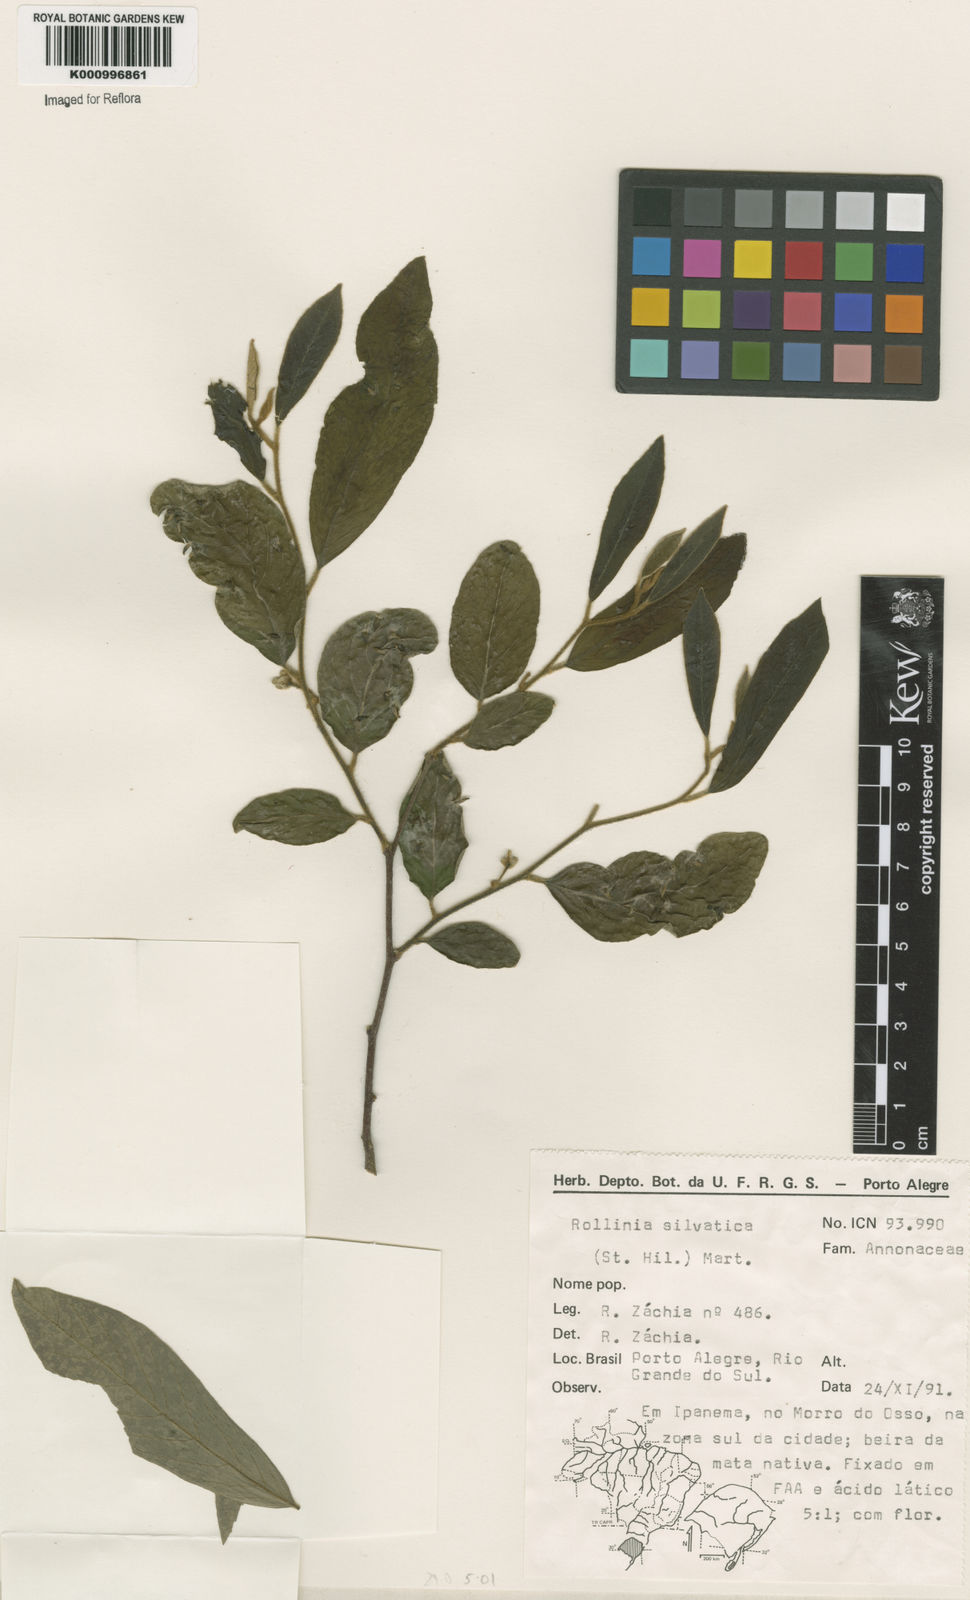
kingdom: Plantae
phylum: Tracheophyta
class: Magnoliopsida
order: Magnoliales
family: Annonaceae
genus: Annona
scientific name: Annona sylvatica
